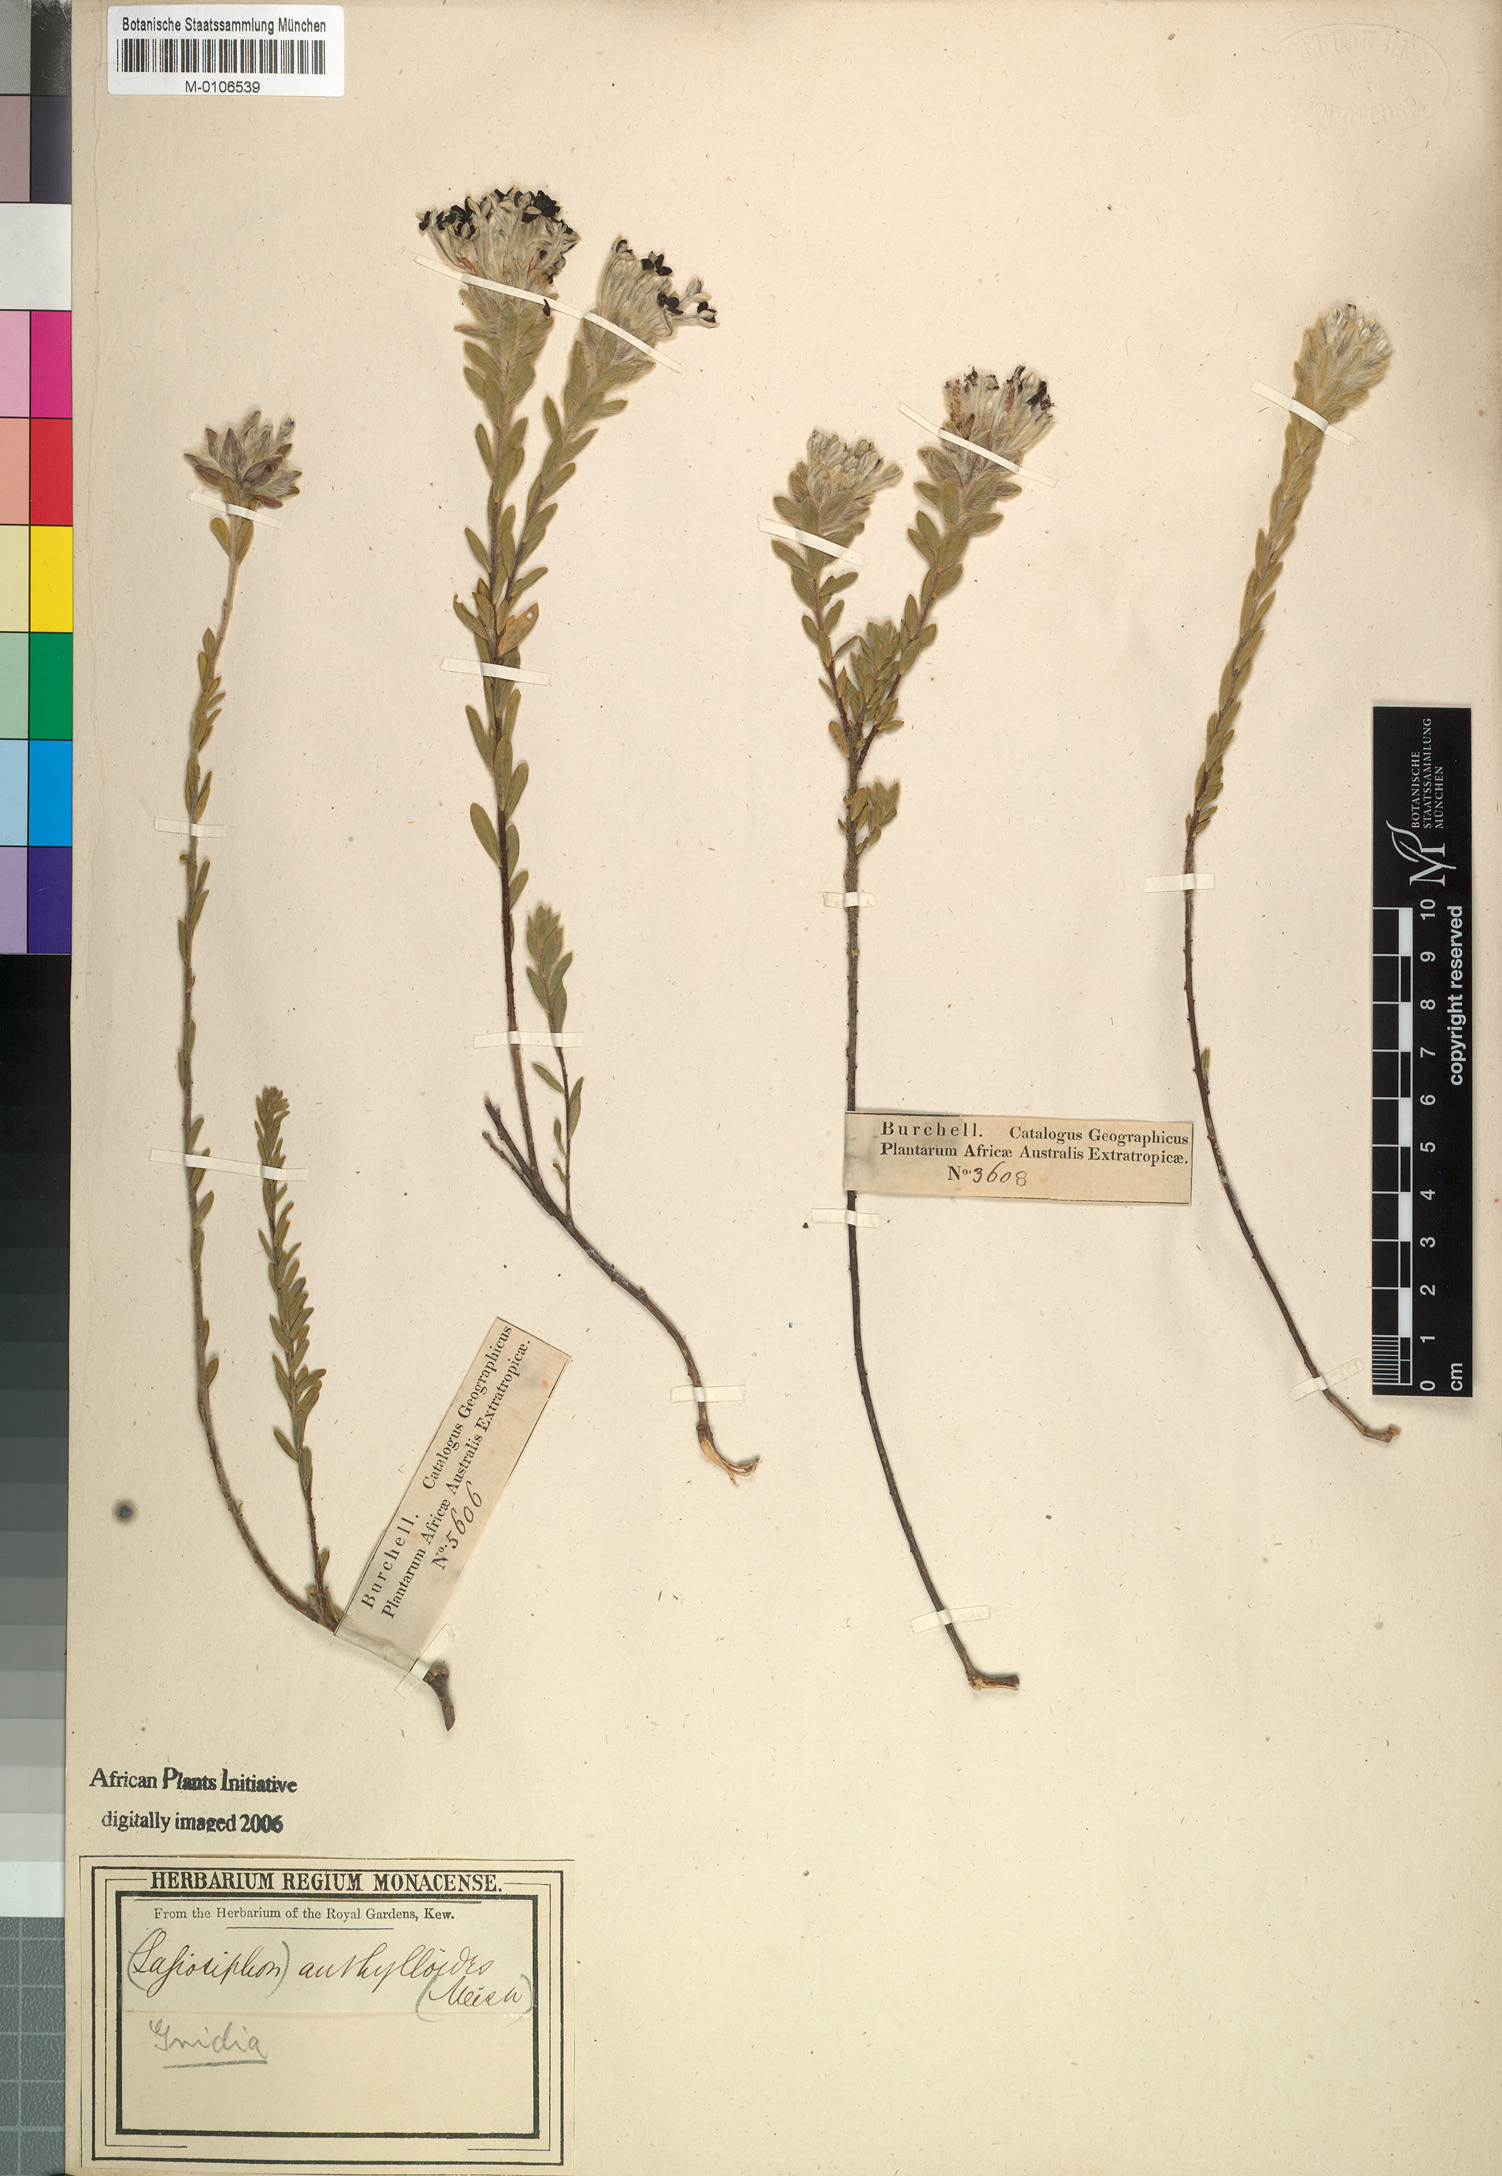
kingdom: Plantae
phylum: Tracheophyta
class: Magnoliopsida
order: Malvales
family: Thymelaeaceae
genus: Gnidia
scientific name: Gnidia anthylloides
